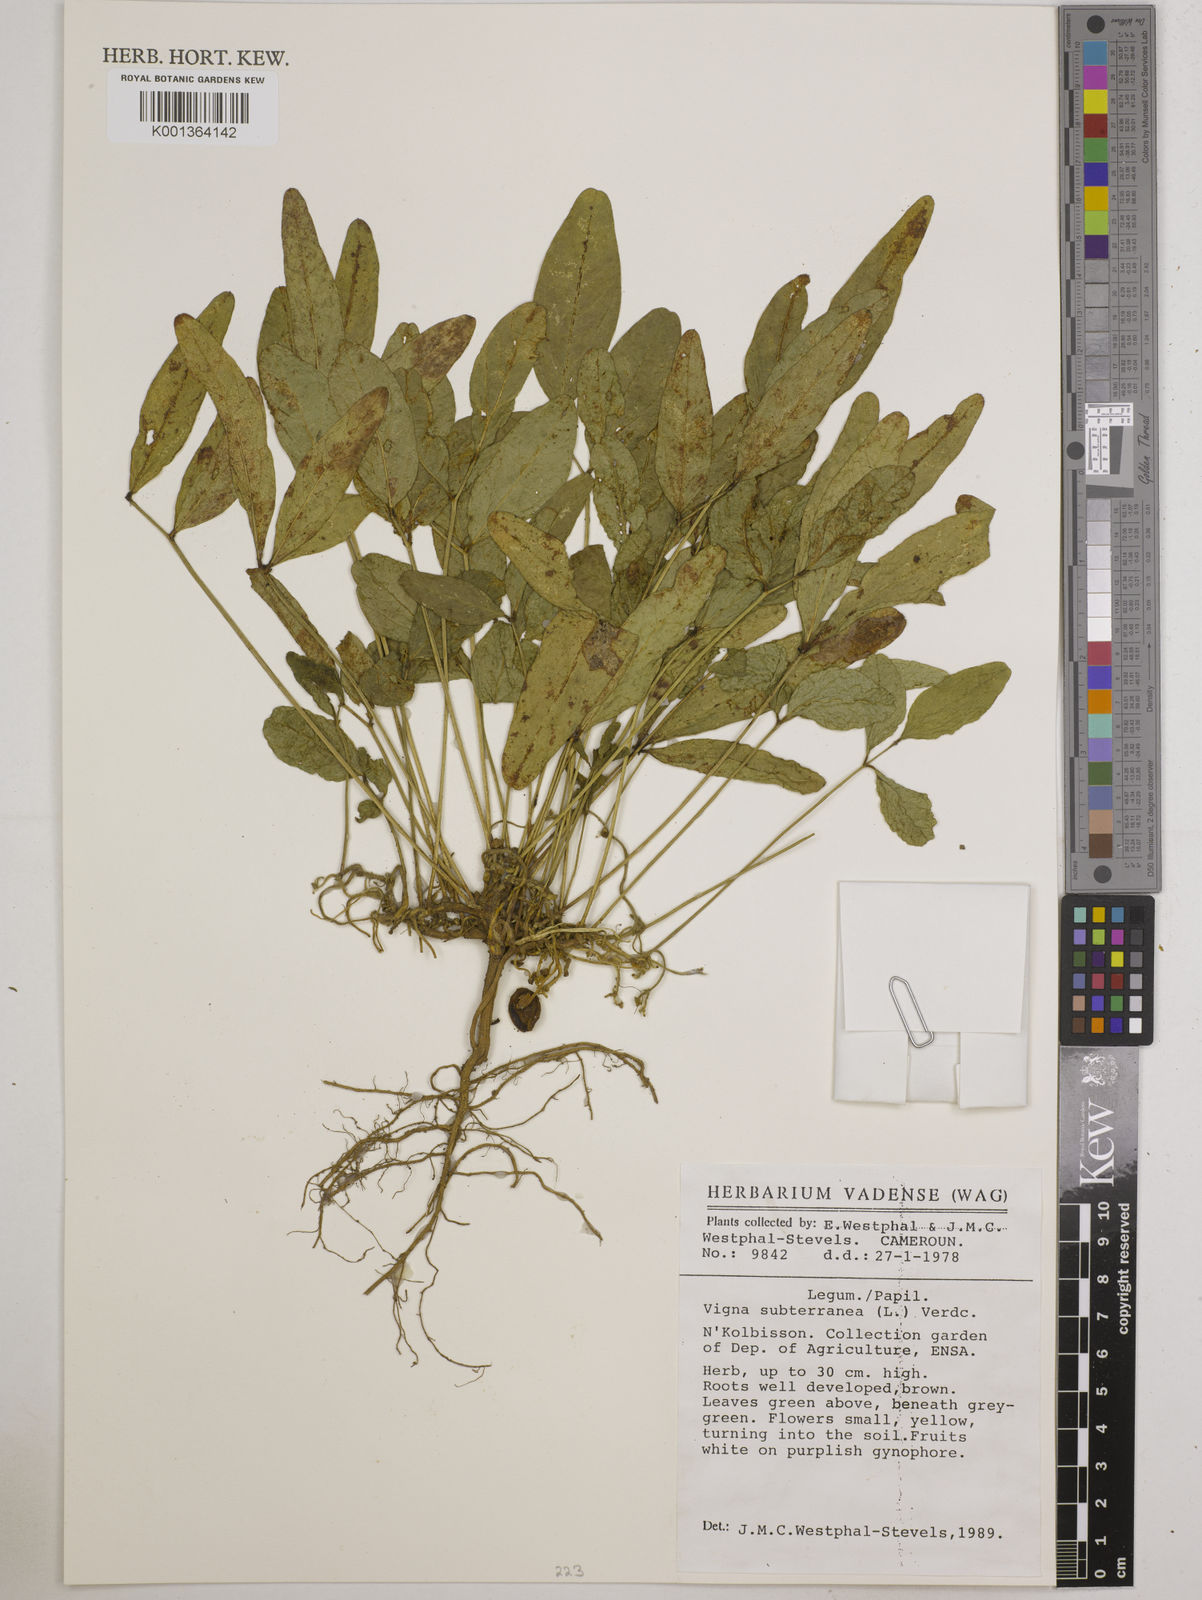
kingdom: Plantae
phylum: Tracheophyta
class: Magnoliopsida
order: Fabales
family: Fabaceae
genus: Vigna
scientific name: Vigna subterranea
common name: Bambara groundnut
